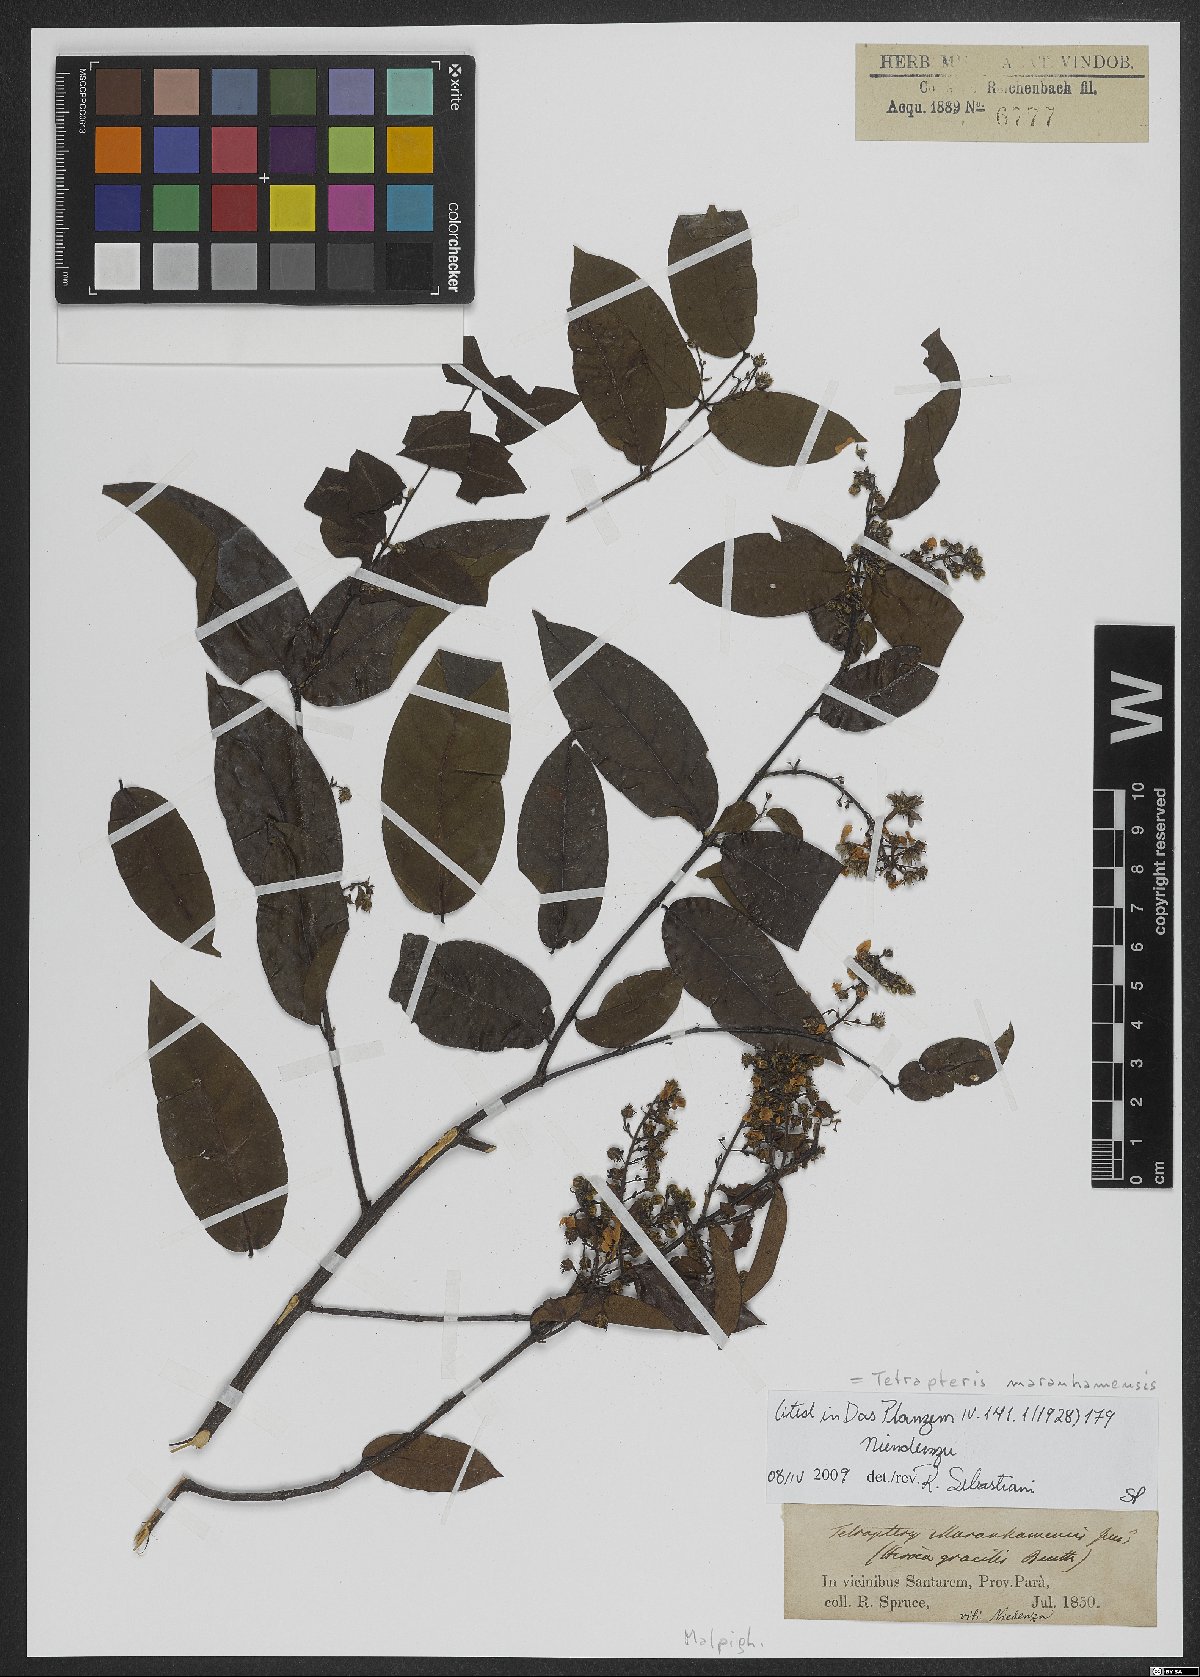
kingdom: Plantae
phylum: Tracheophyta
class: Magnoliopsida
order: Malpighiales
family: Malpighiaceae
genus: Glicophyllum
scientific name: Glicophyllum maranhamense
